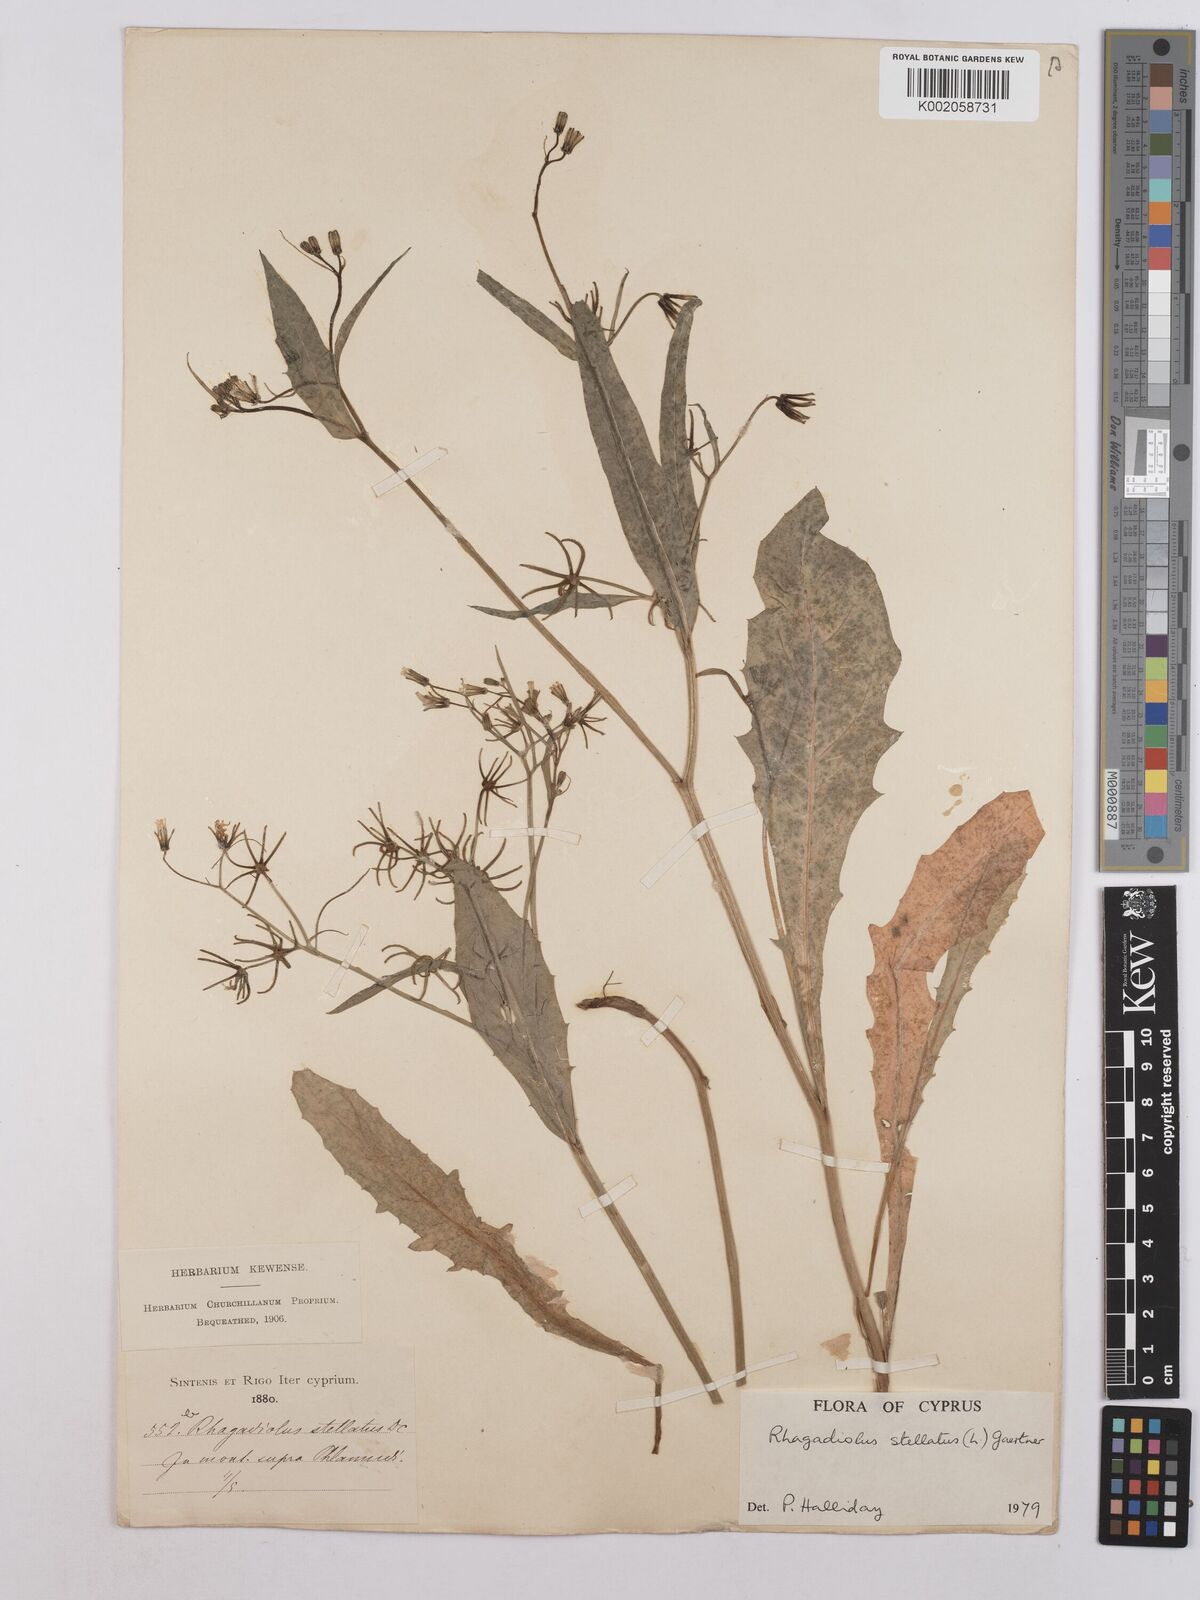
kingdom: Plantae
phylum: Tracheophyta
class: Magnoliopsida
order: Asterales
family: Asteraceae
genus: Rhagadiolus
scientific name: Rhagadiolus stellatus
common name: Star hawkbit
